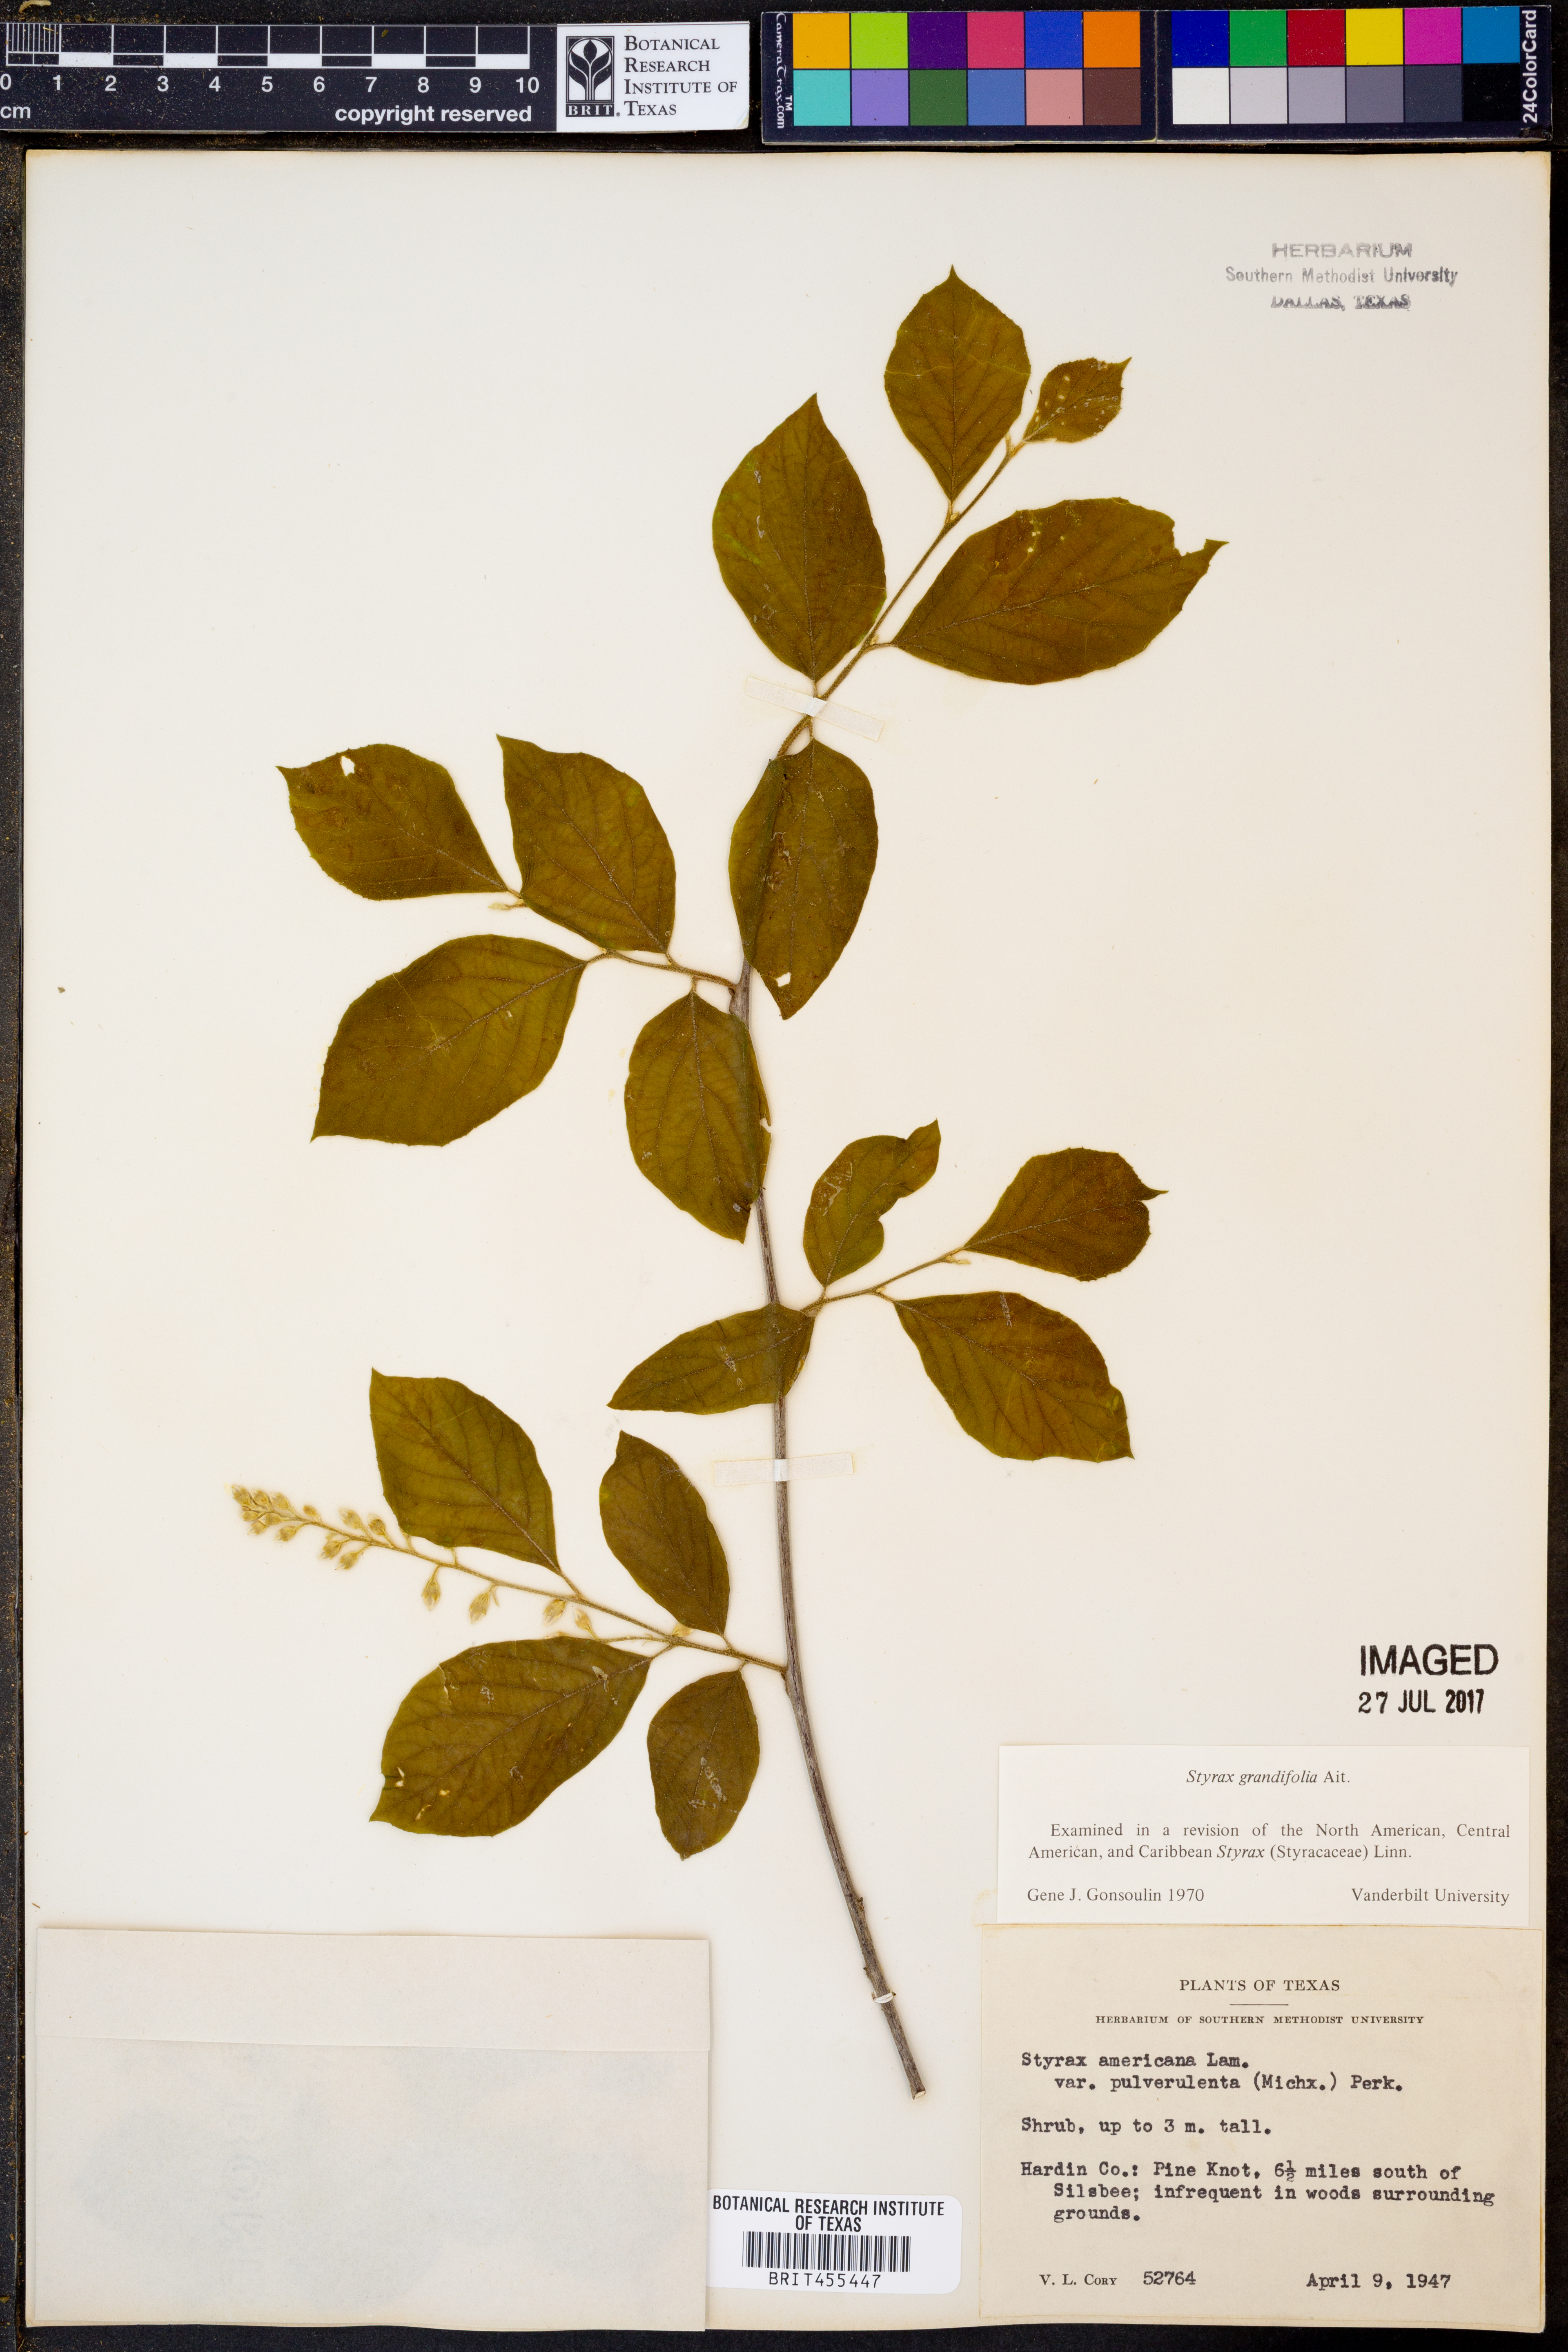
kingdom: Plantae
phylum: Tracheophyta
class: Magnoliopsida
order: Ericales
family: Styracaceae
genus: Styrax
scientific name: Styrax grandifolius
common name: Big-leaf snowbell
